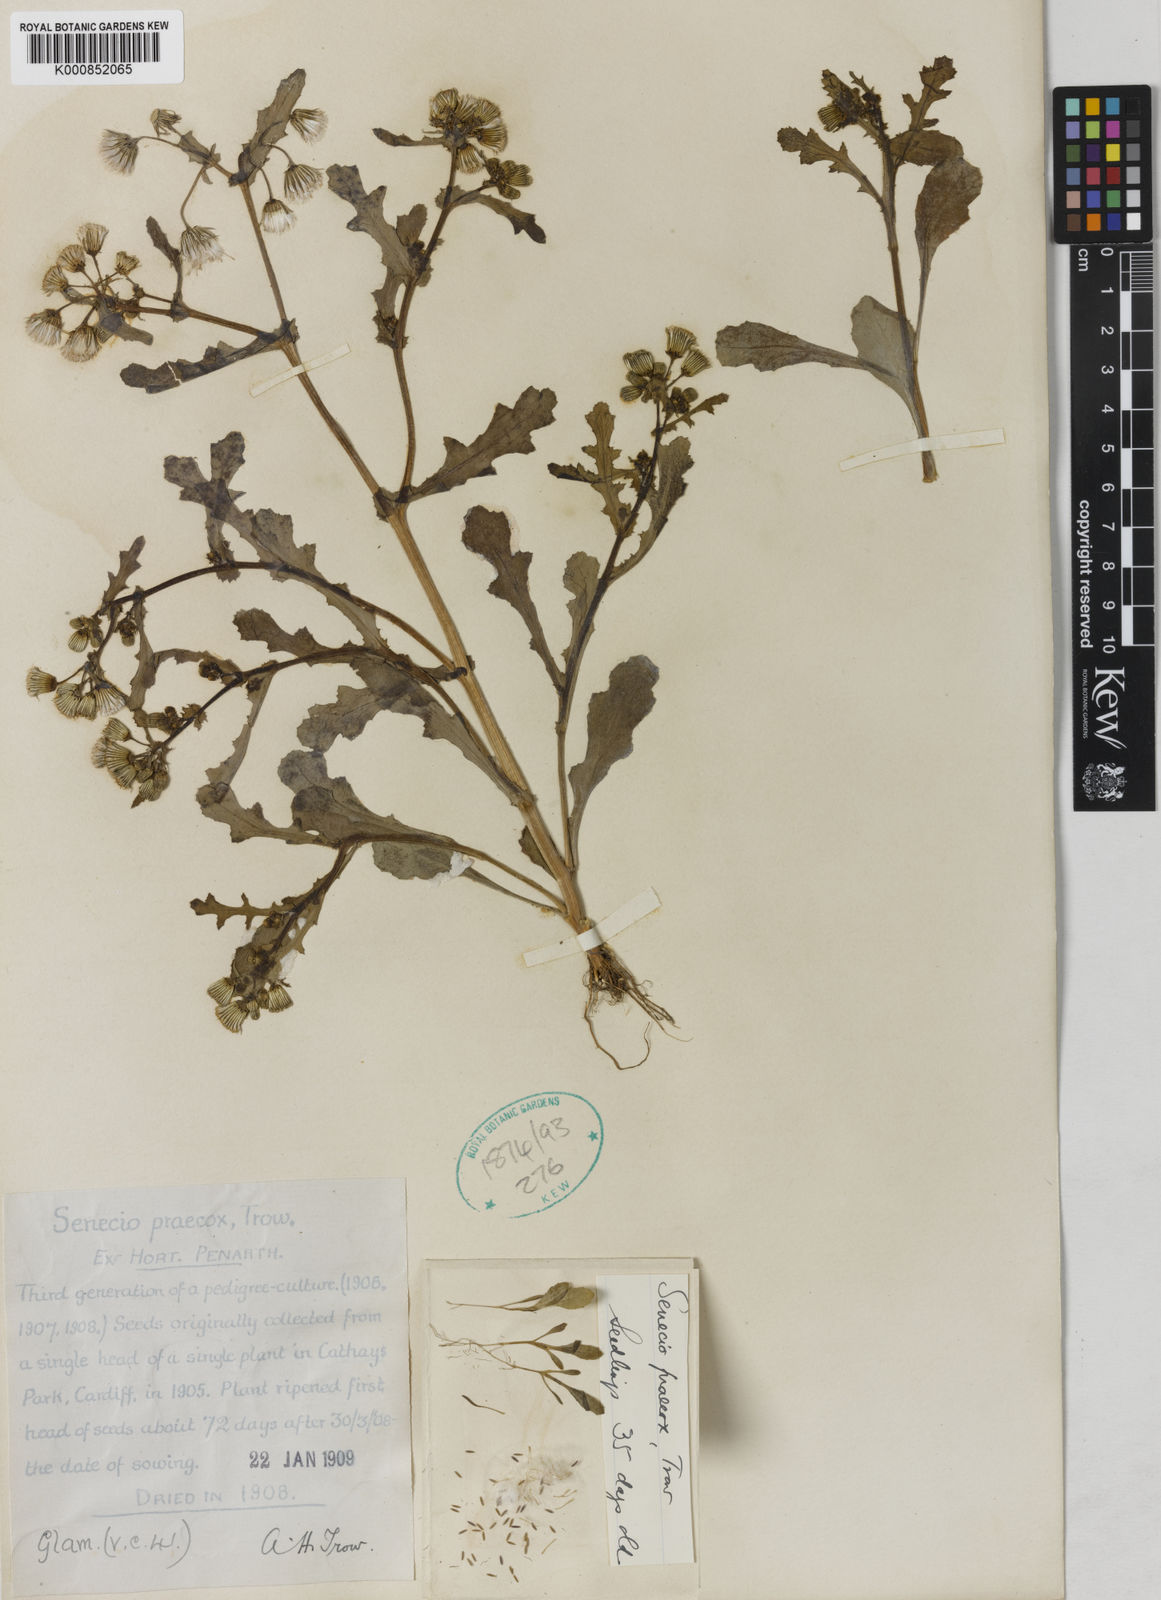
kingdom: Plantae
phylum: Tracheophyta
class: Magnoliopsida
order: Asterales
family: Asteraceae
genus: Senecio
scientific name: Senecio vulgaris
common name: Old-man-in-the-spring
